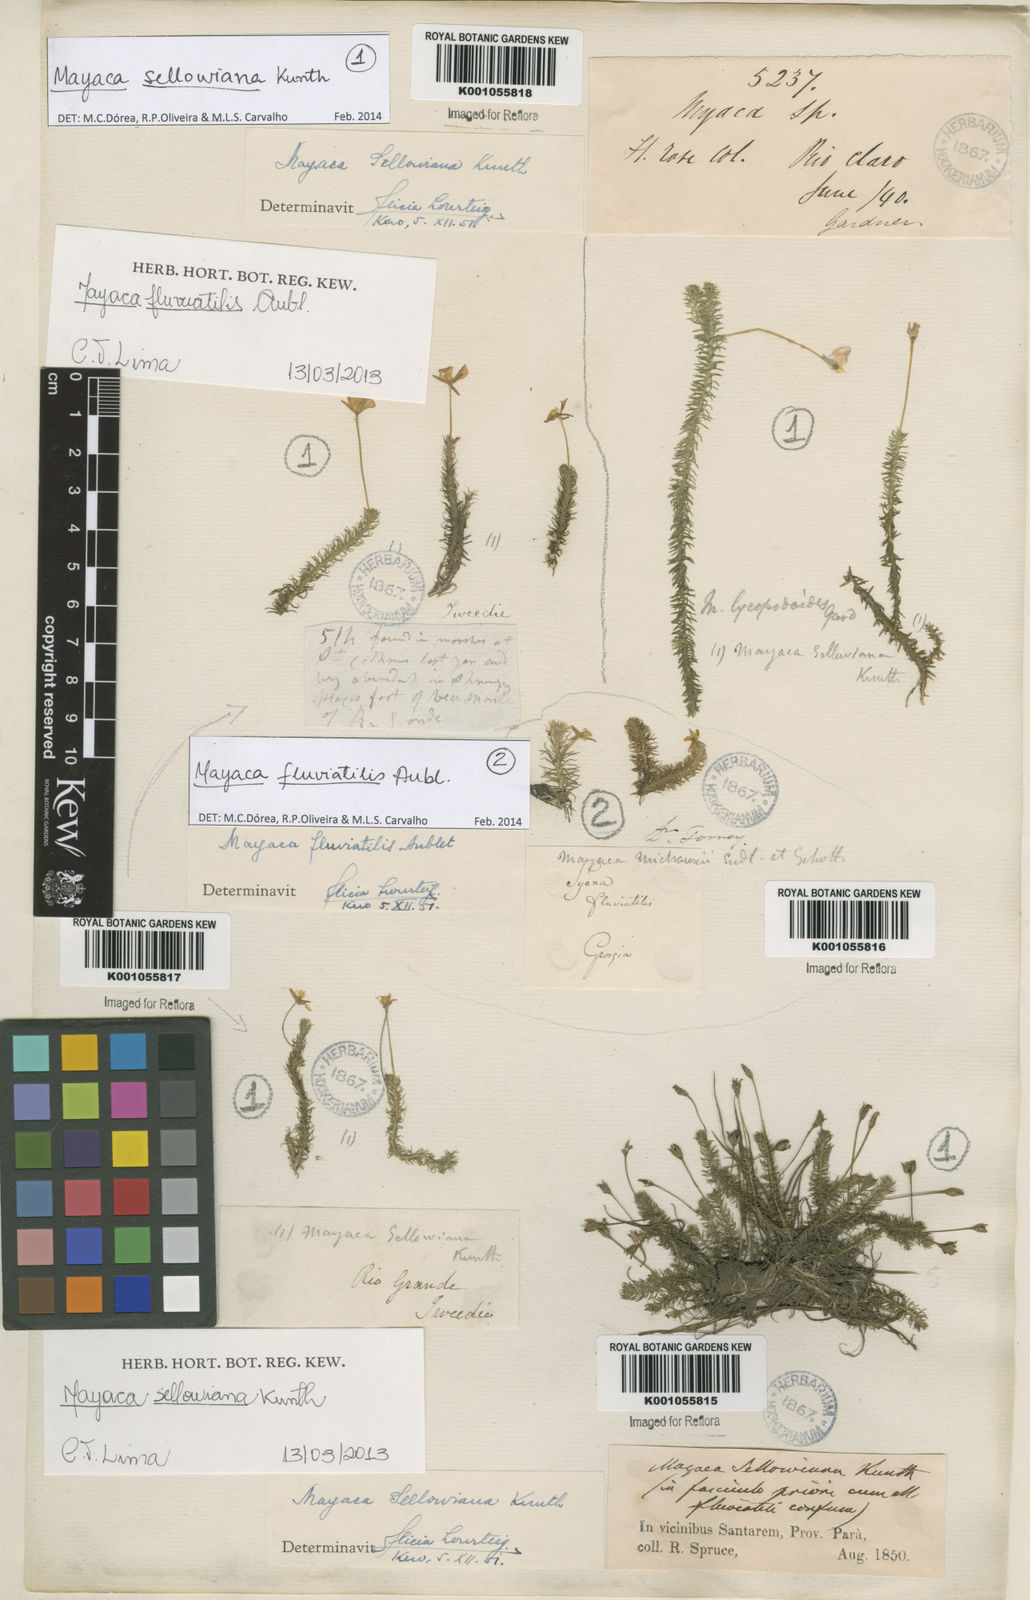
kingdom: Plantae
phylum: Tracheophyta
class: Liliopsida
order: Poales
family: Mayacaceae
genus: Mayaca
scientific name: Mayaca sellowiana
